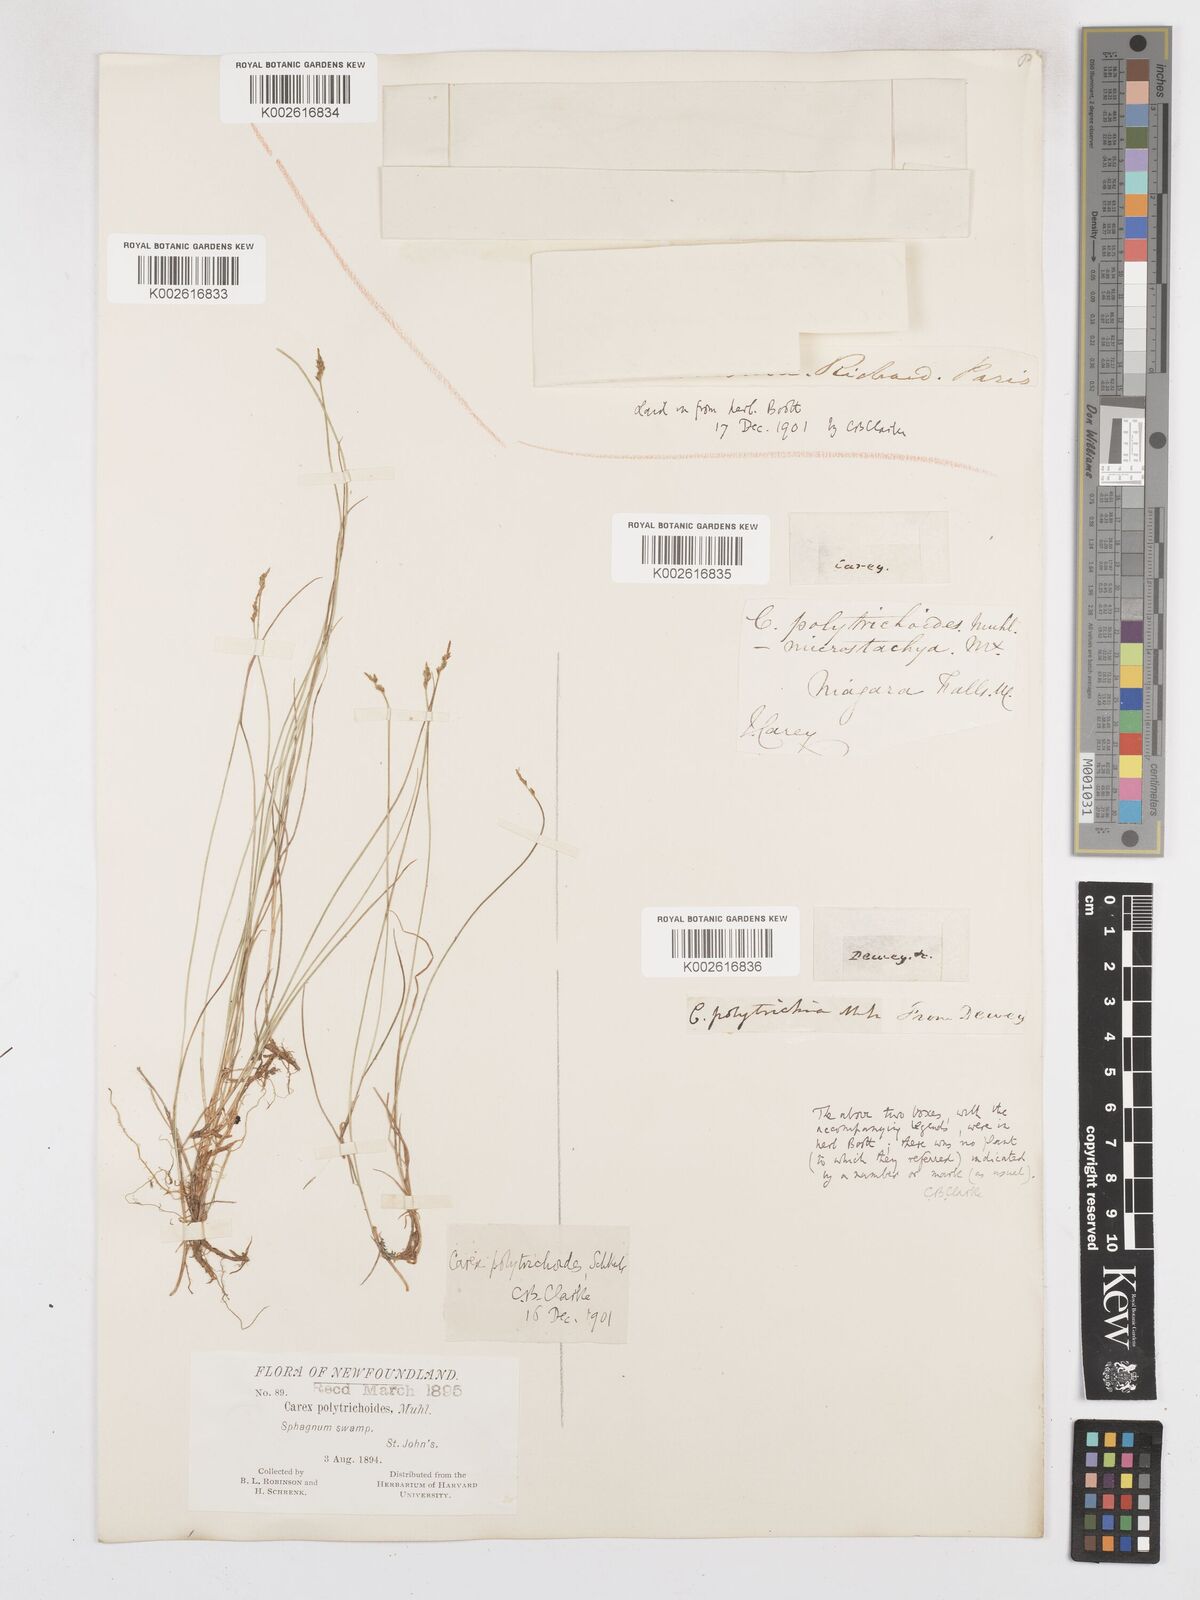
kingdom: Plantae
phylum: Tracheophyta
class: Liliopsida
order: Poales
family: Cyperaceae
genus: Carex
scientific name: Carex leptalea
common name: Bristly-stalked sedge
